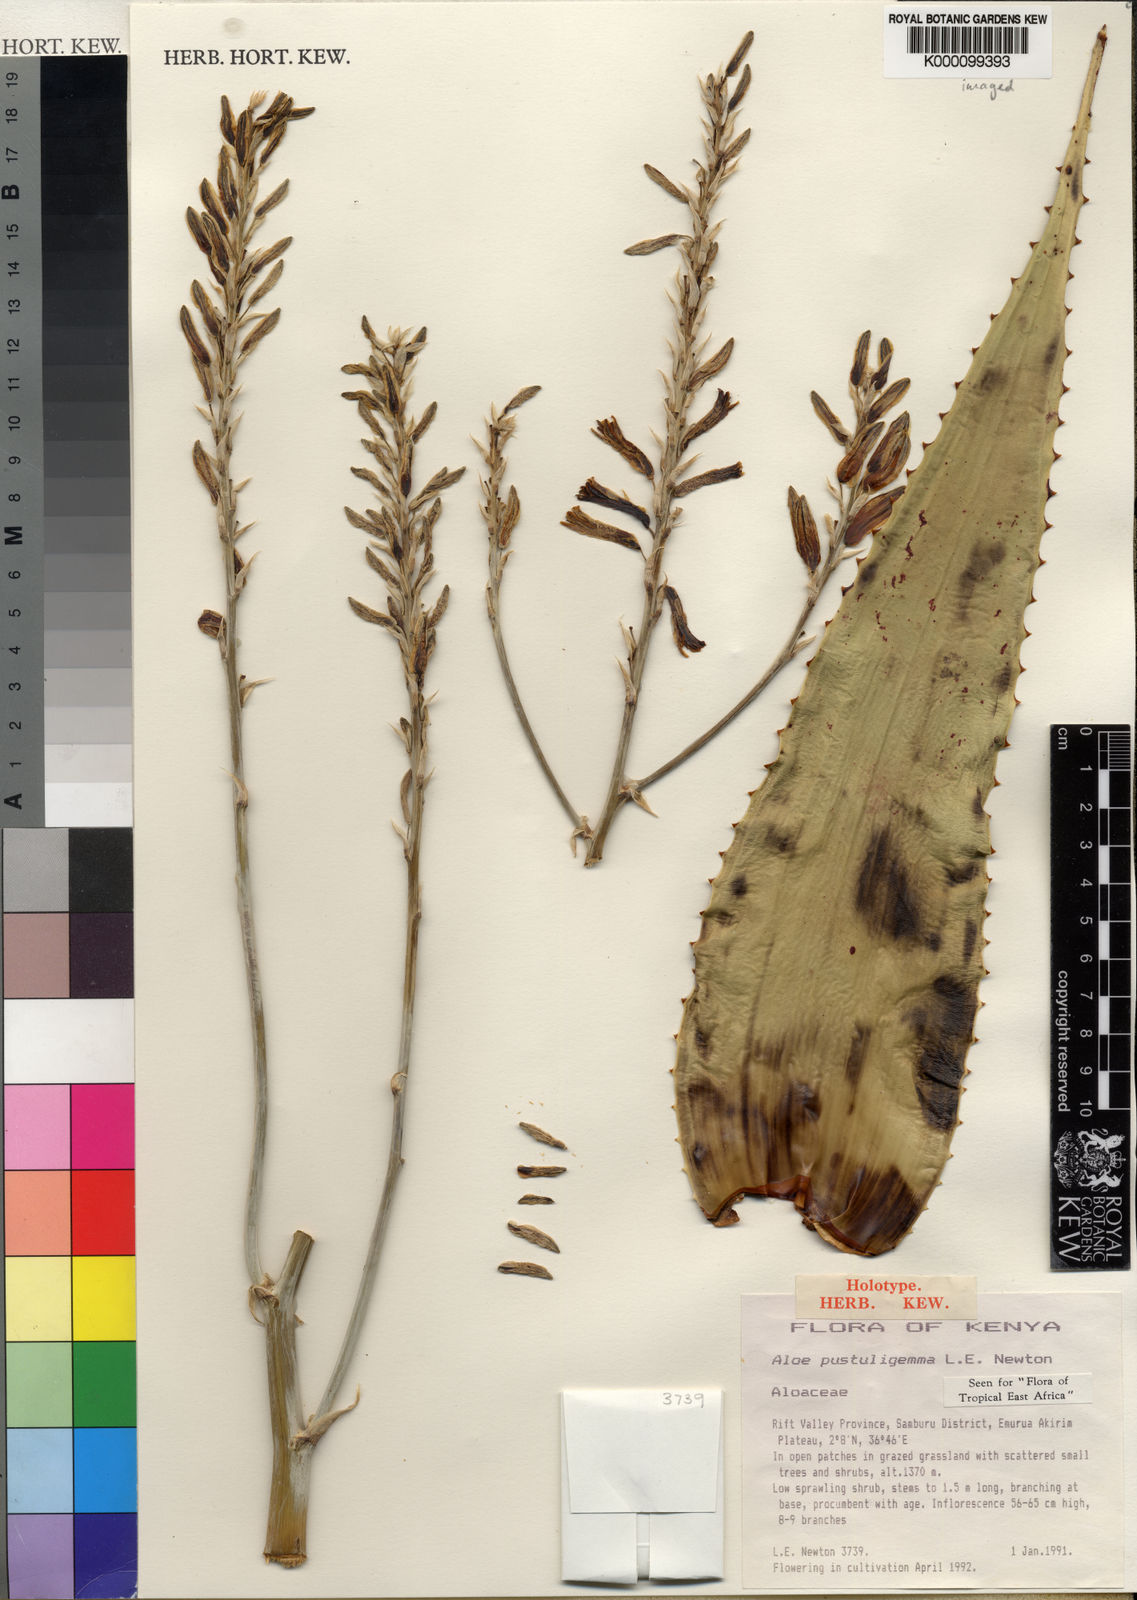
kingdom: Plantae
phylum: Tracheophyta
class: Liliopsida
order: Asparagales
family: Asphodelaceae
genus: Aloe
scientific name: Aloe pustuligemma
